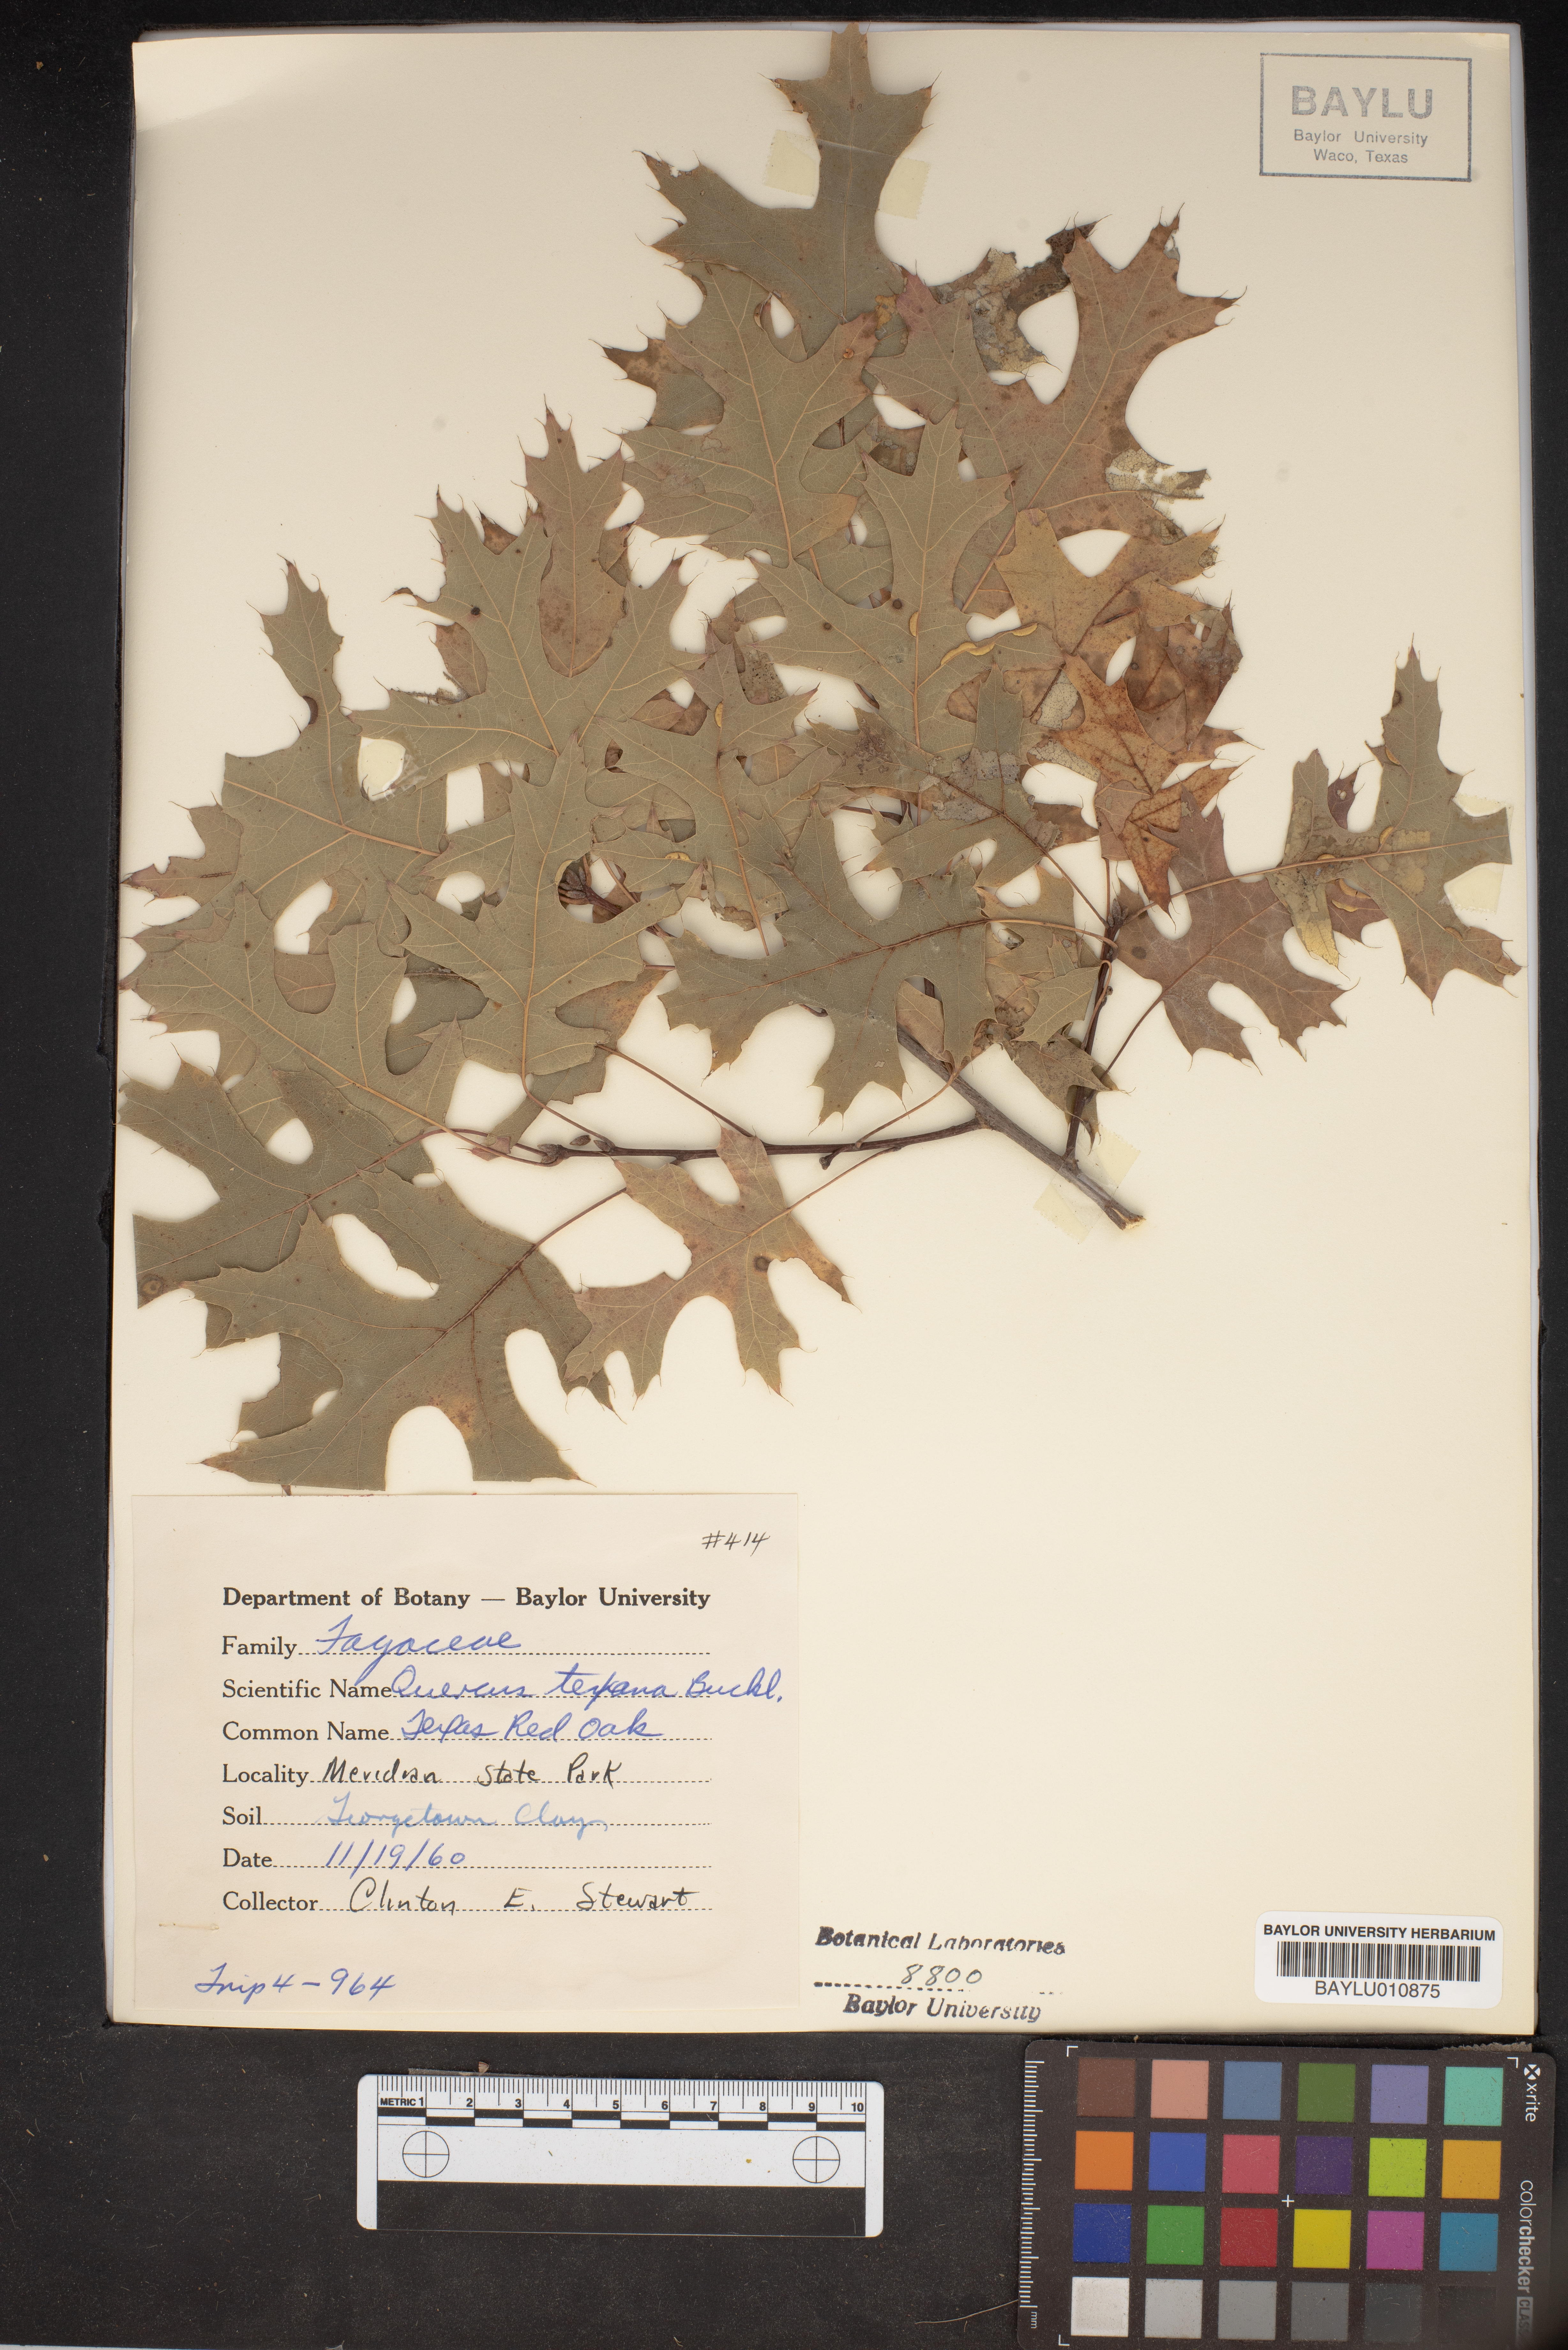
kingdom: Plantae
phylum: Tracheophyta
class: Magnoliopsida
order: Fagales
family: Fagaceae
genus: Quercus
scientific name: Quercus texana
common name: Nuttall oak
